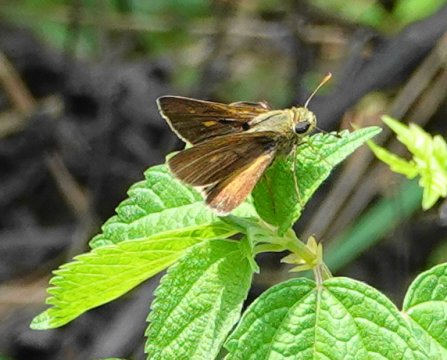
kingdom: Animalia
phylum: Arthropoda
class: Insecta
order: Lepidoptera
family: Hesperiidae
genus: Wallengrenia
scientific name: Wallengrenia otho
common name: Southern Broken-Dash
